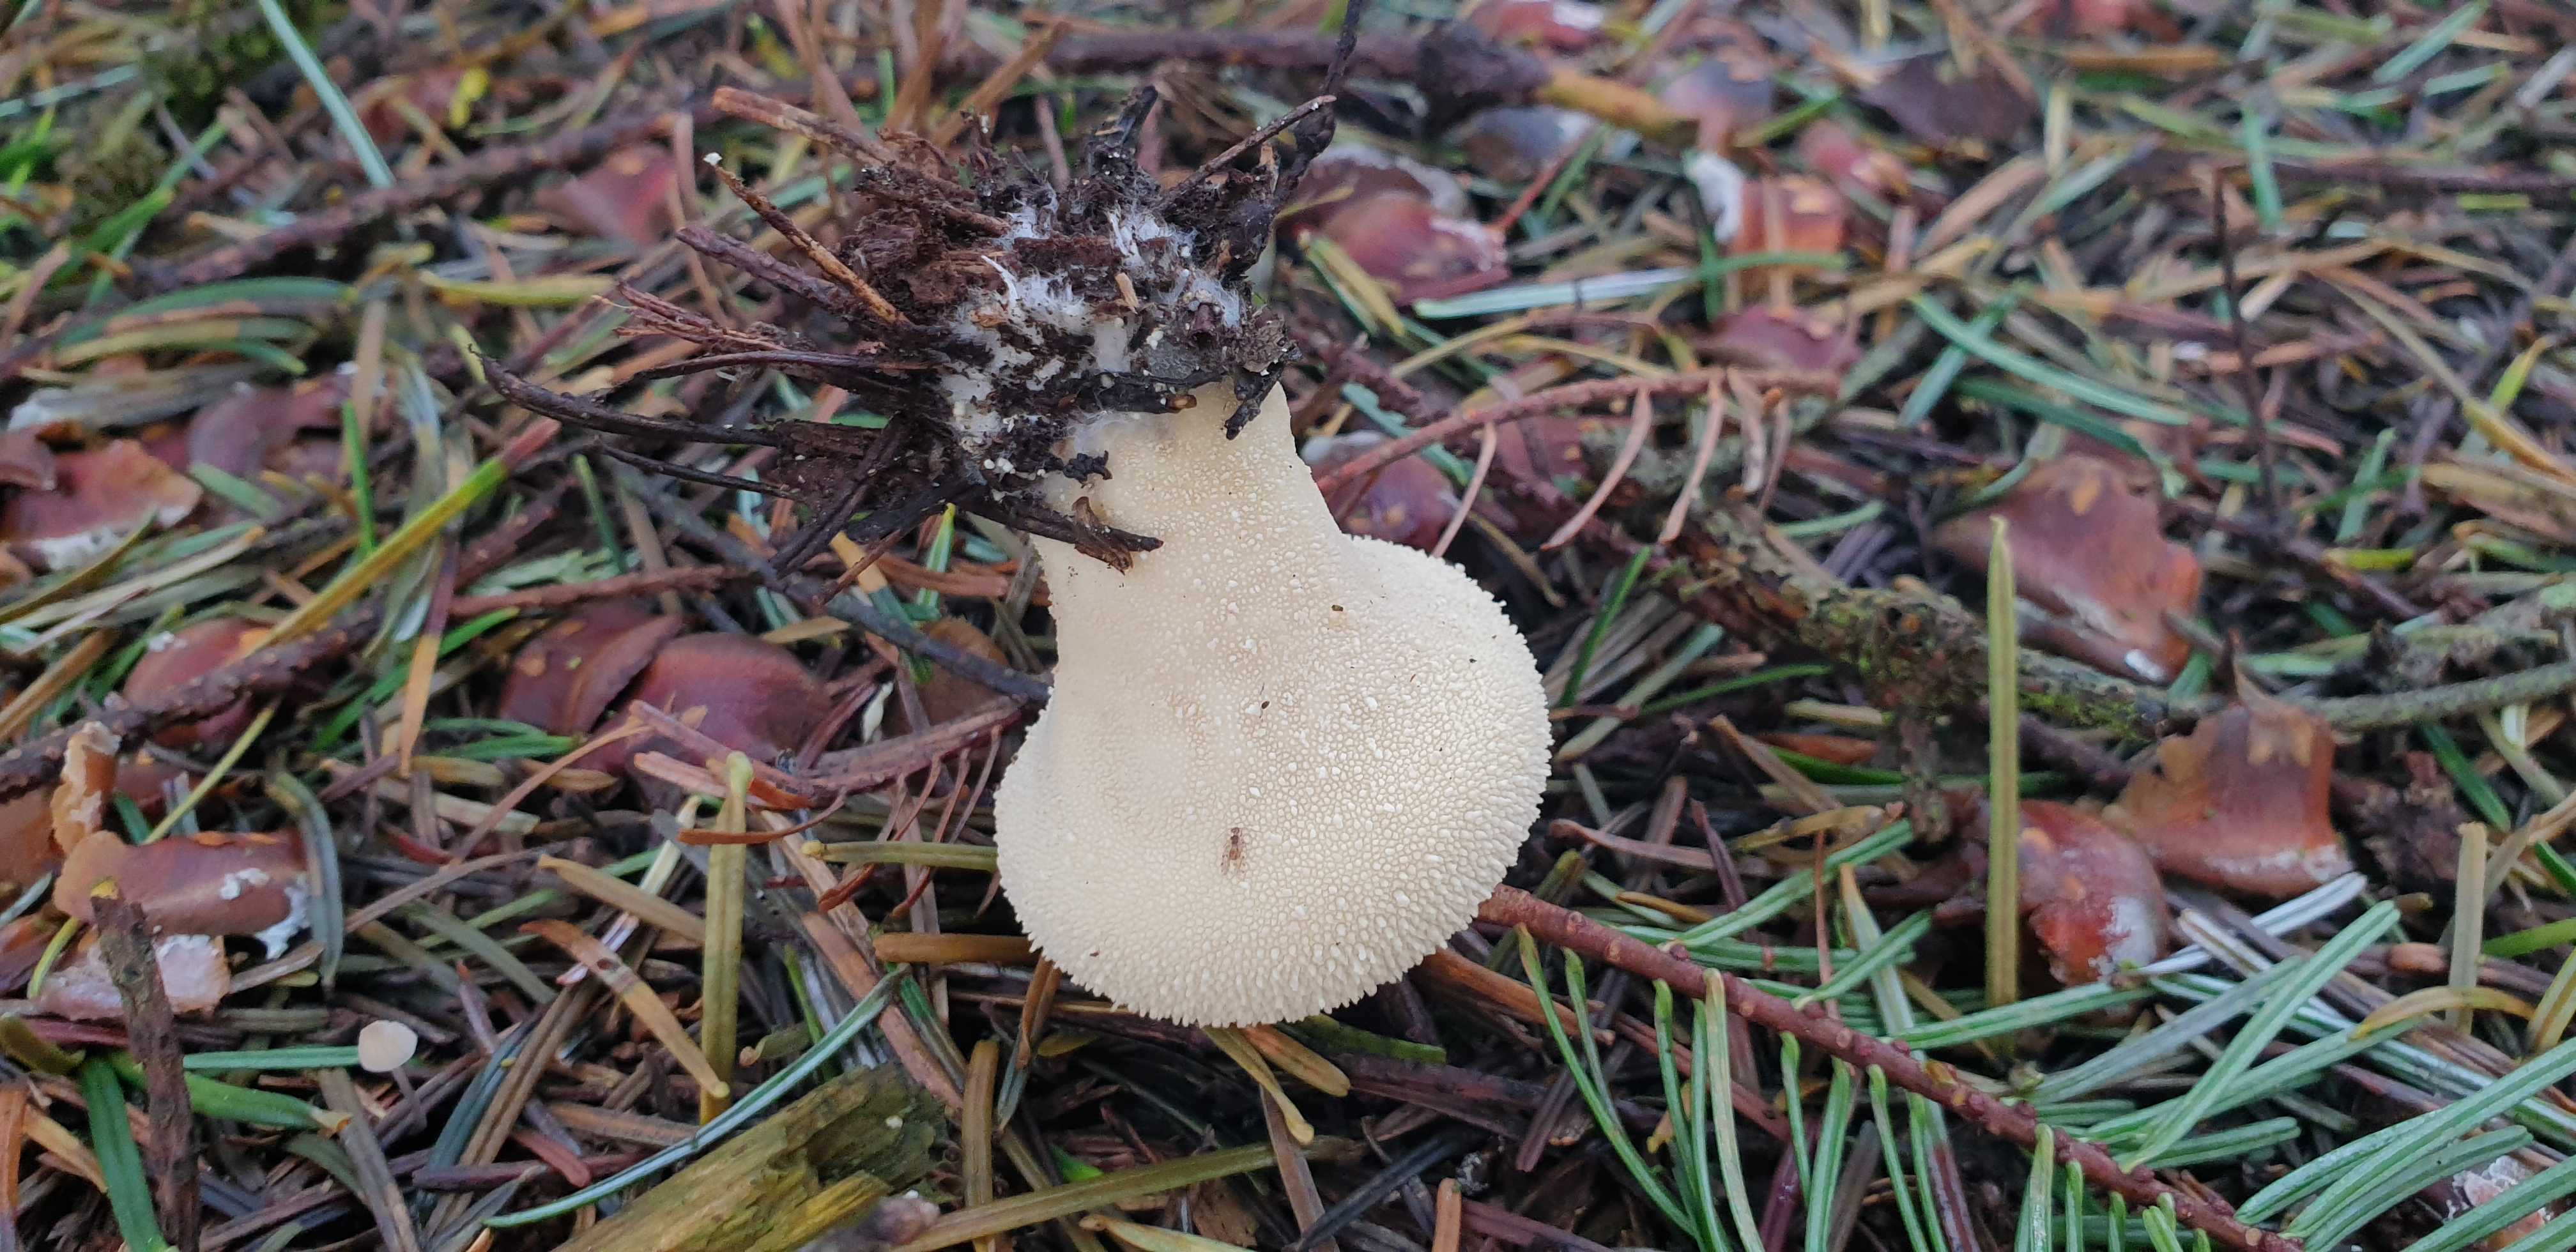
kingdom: Fungi
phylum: Basidiomycota
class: Agaricomycetes
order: Agaricales
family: Lycoperdaceae
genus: Lycoperdon
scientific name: Lycoperdon perlatum
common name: krystal-støvbold
